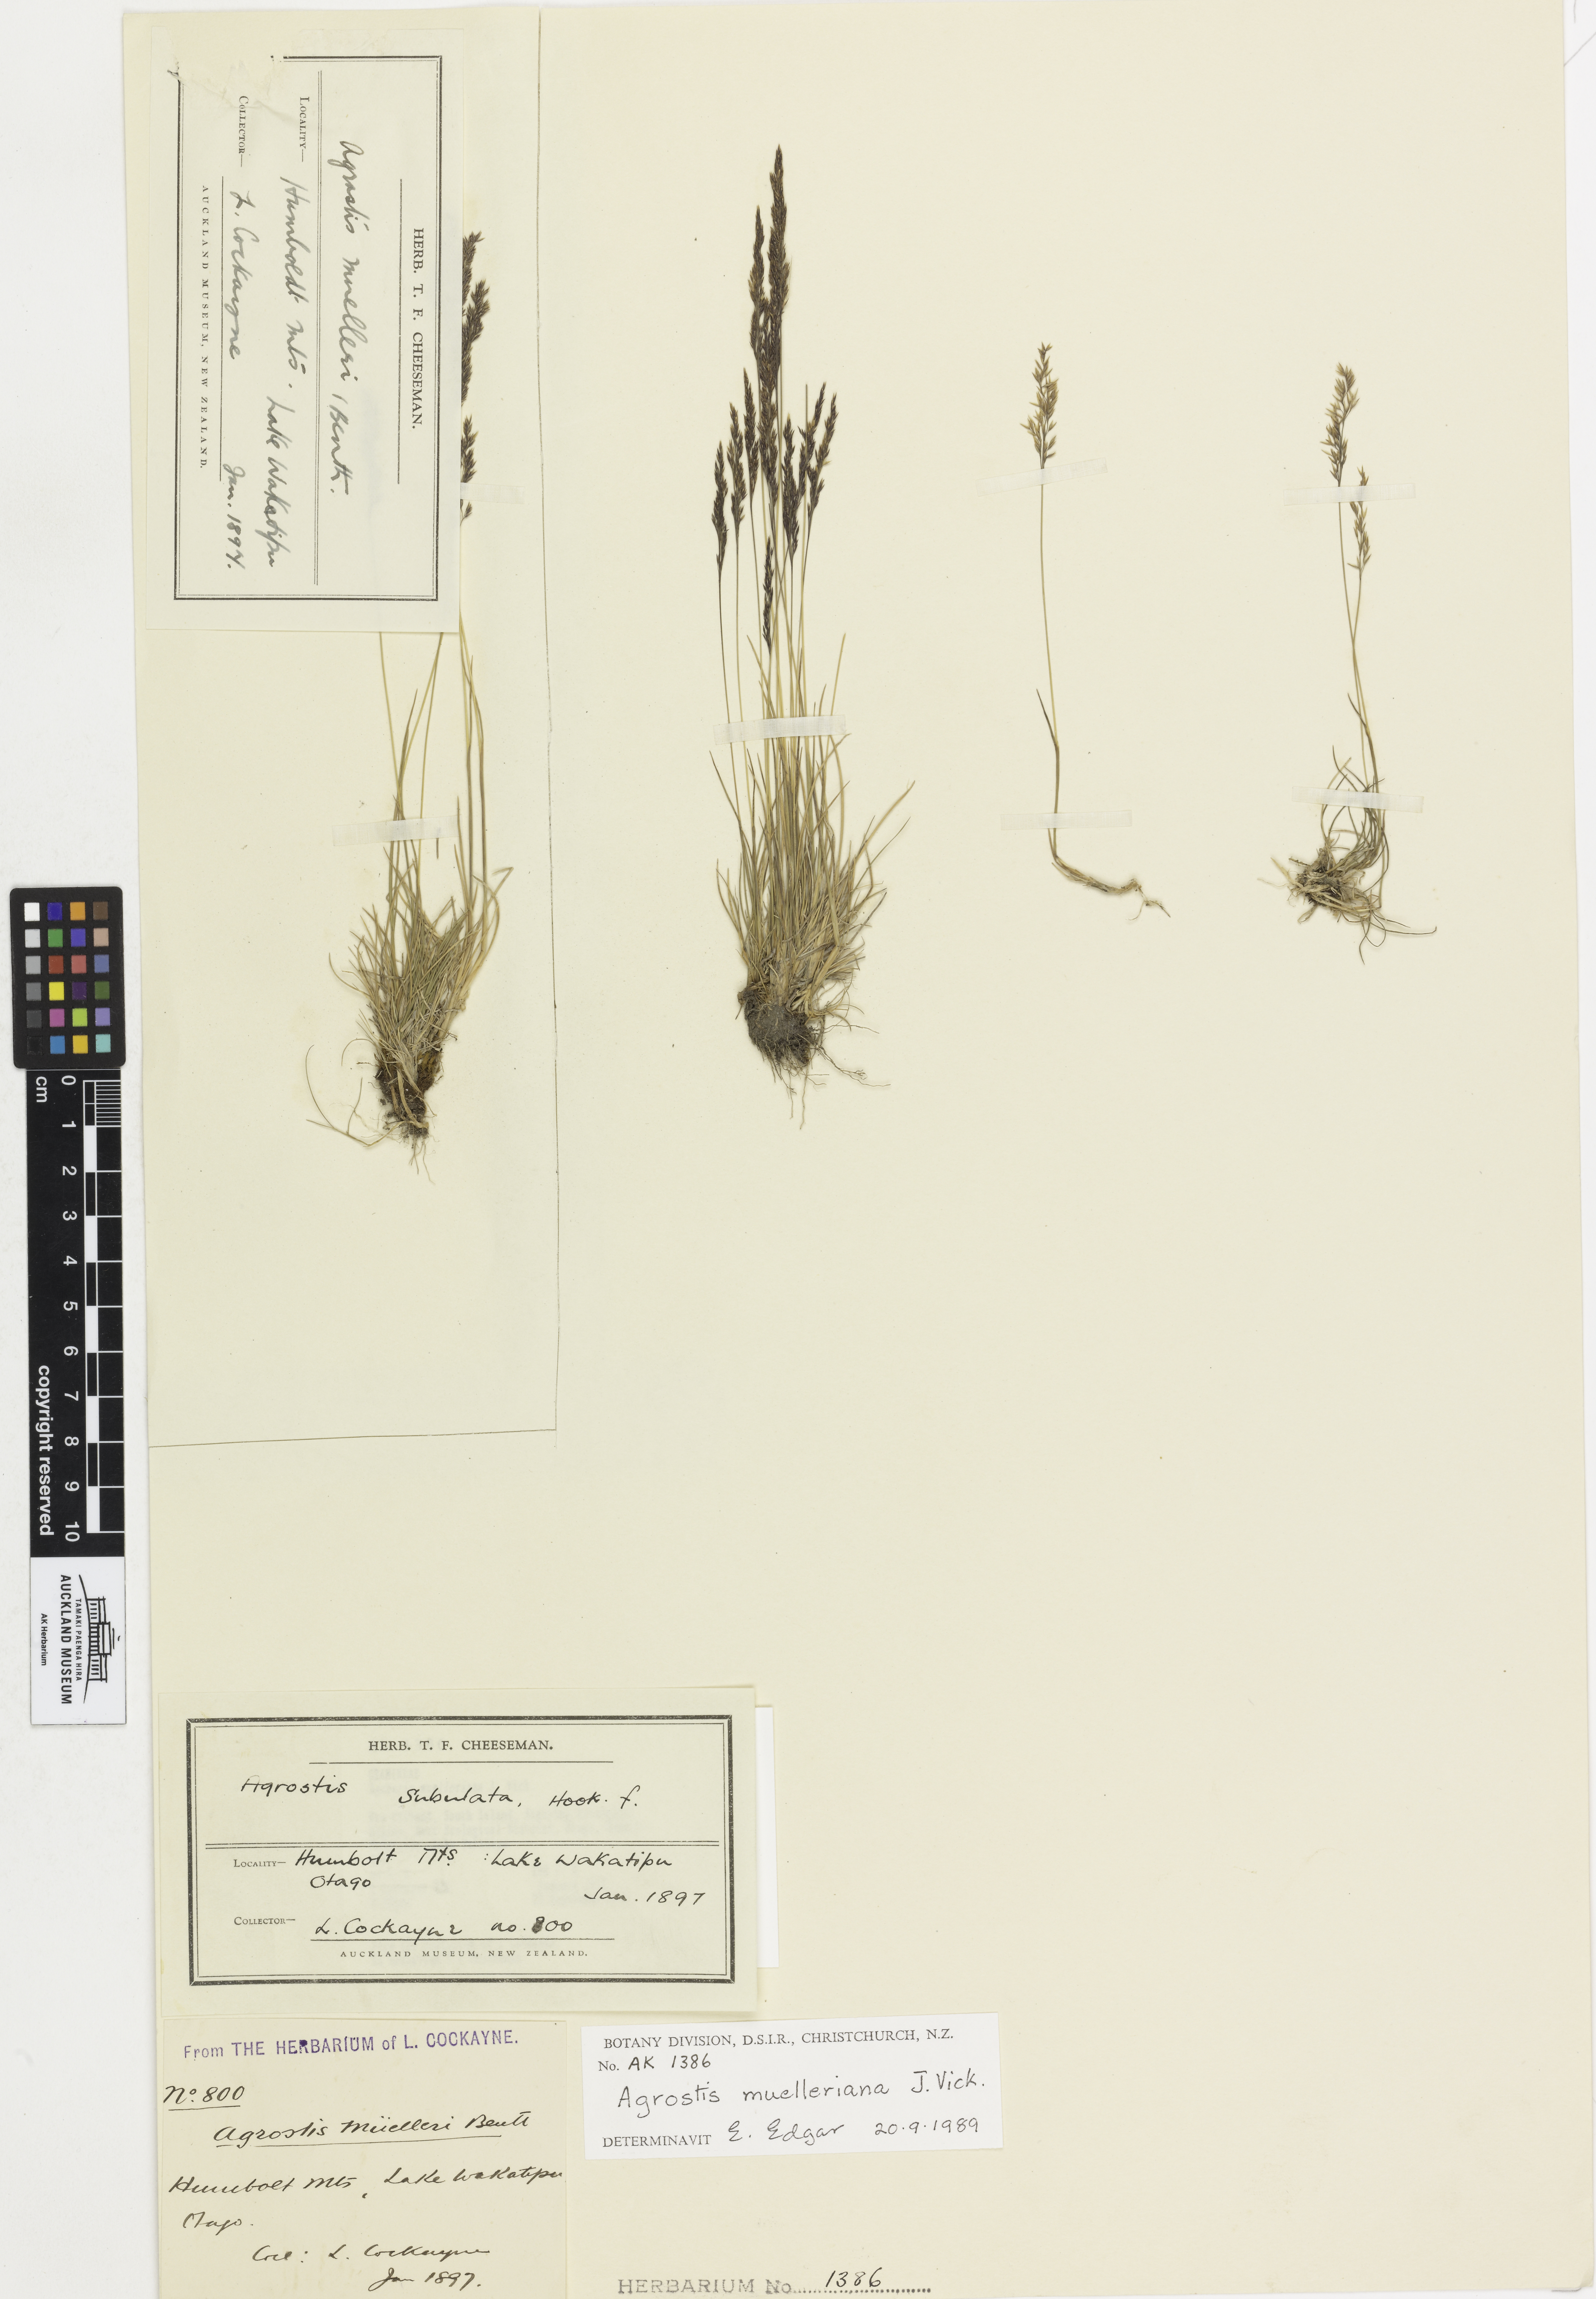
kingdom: Plantae
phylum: Tracheophyta
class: Liliopsida
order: Poales
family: Poaceae
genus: Agrostis
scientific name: Agrostis muelleriana
